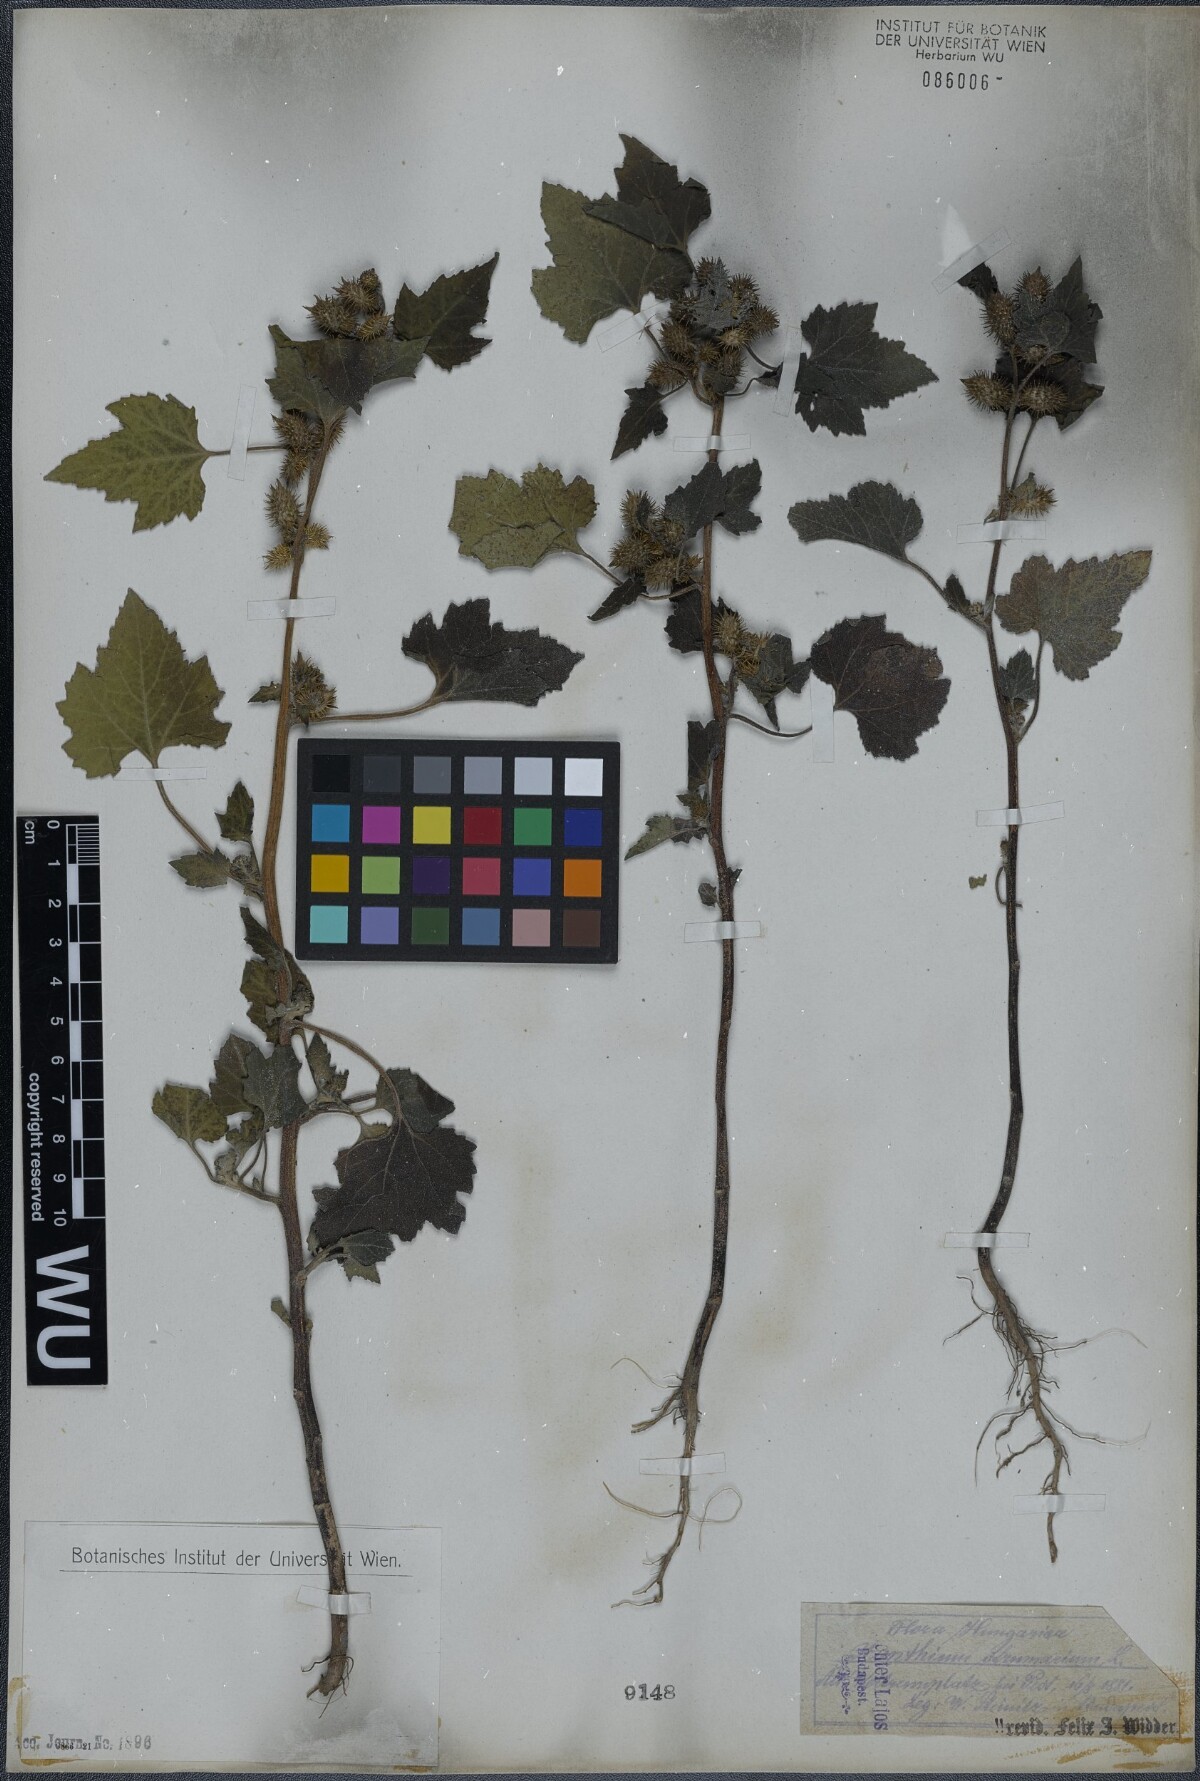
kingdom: Plantae
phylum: Tracheophyta
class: Magnoliopsida
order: Asterales
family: Asteraceae
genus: Xanthium
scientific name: Xanthium strumarium
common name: Rough cocklebur
